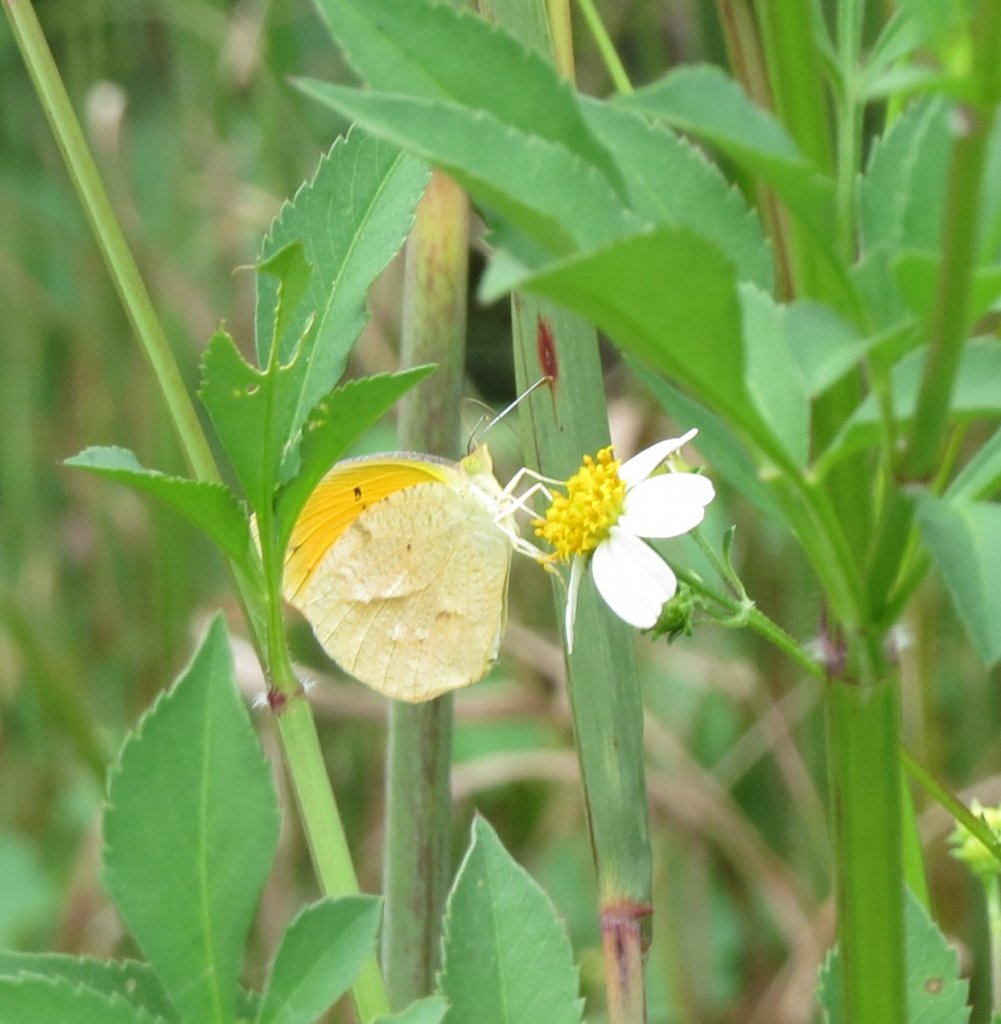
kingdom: Animalia
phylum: Arthropoda
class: Insecta
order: Lepidoptera
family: Pieridae
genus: Abaeis
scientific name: Abaeis nicippe
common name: Sleepy Orange
